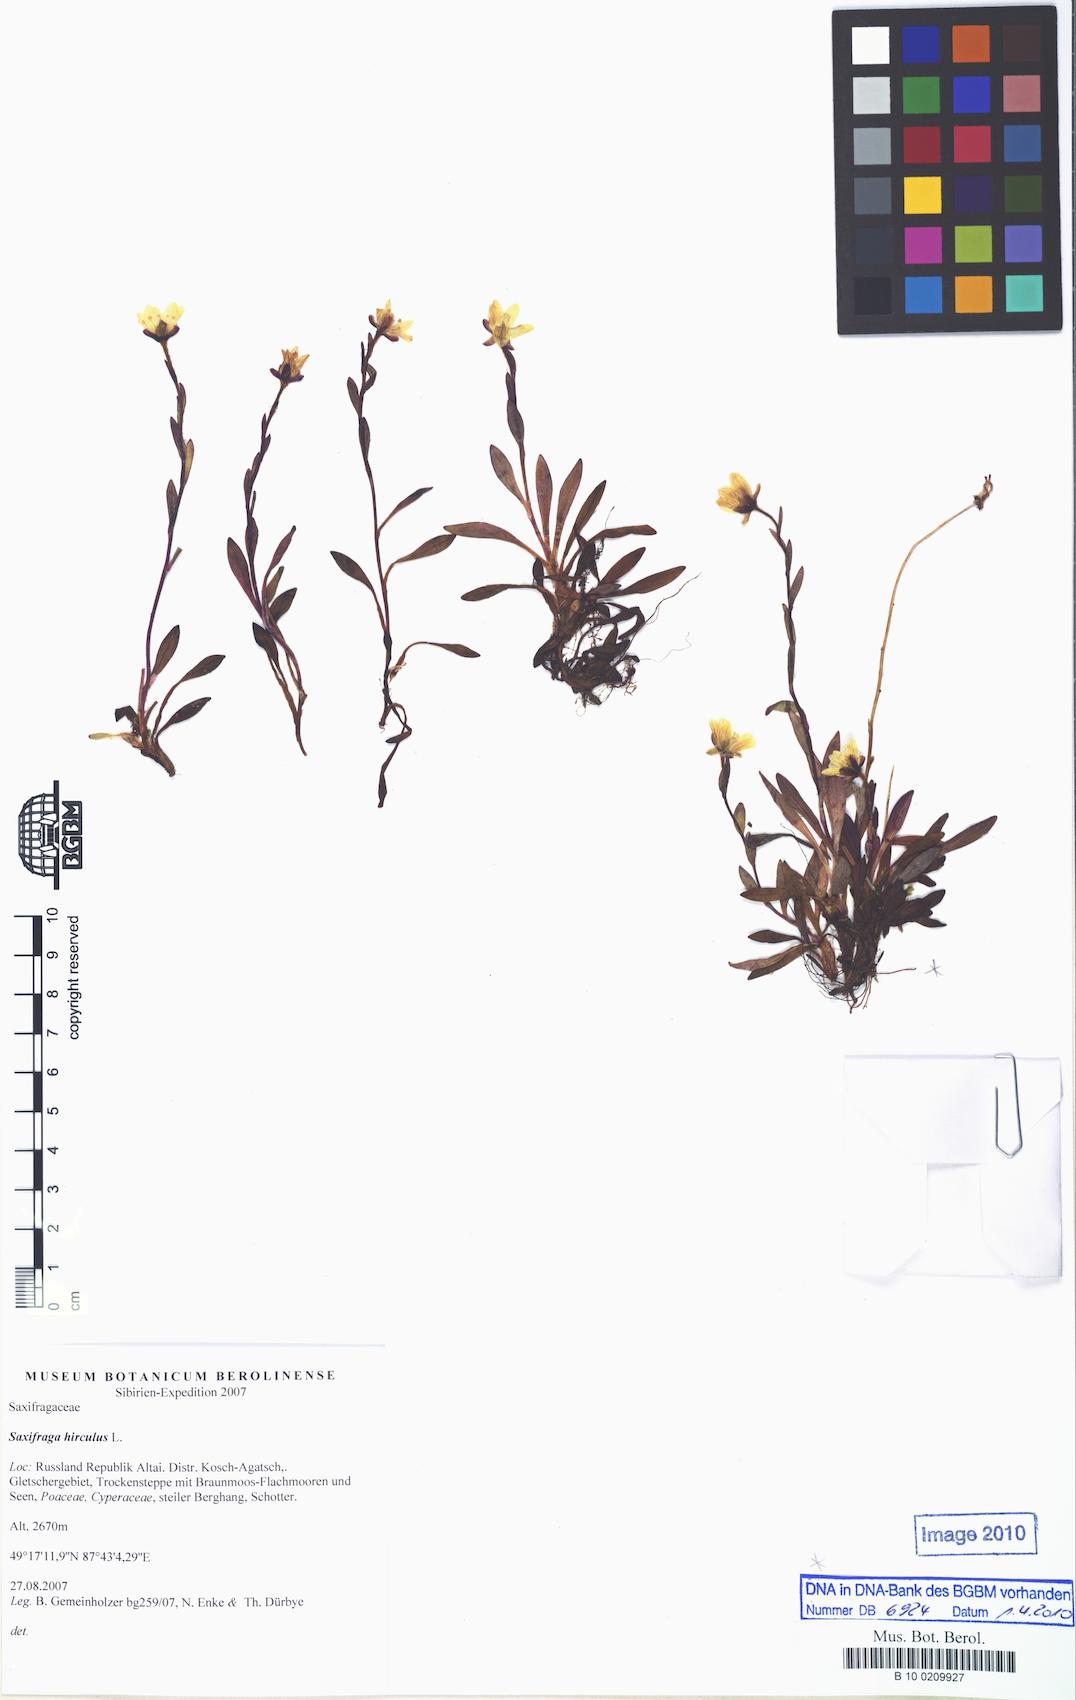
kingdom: Plantae
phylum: Tracheophyta
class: Magnoliopsida
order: Saxifragales
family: Saxifragaceae
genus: Saxifraga
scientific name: Saxifraga hirculus
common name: Yellow marsh saxifrage
